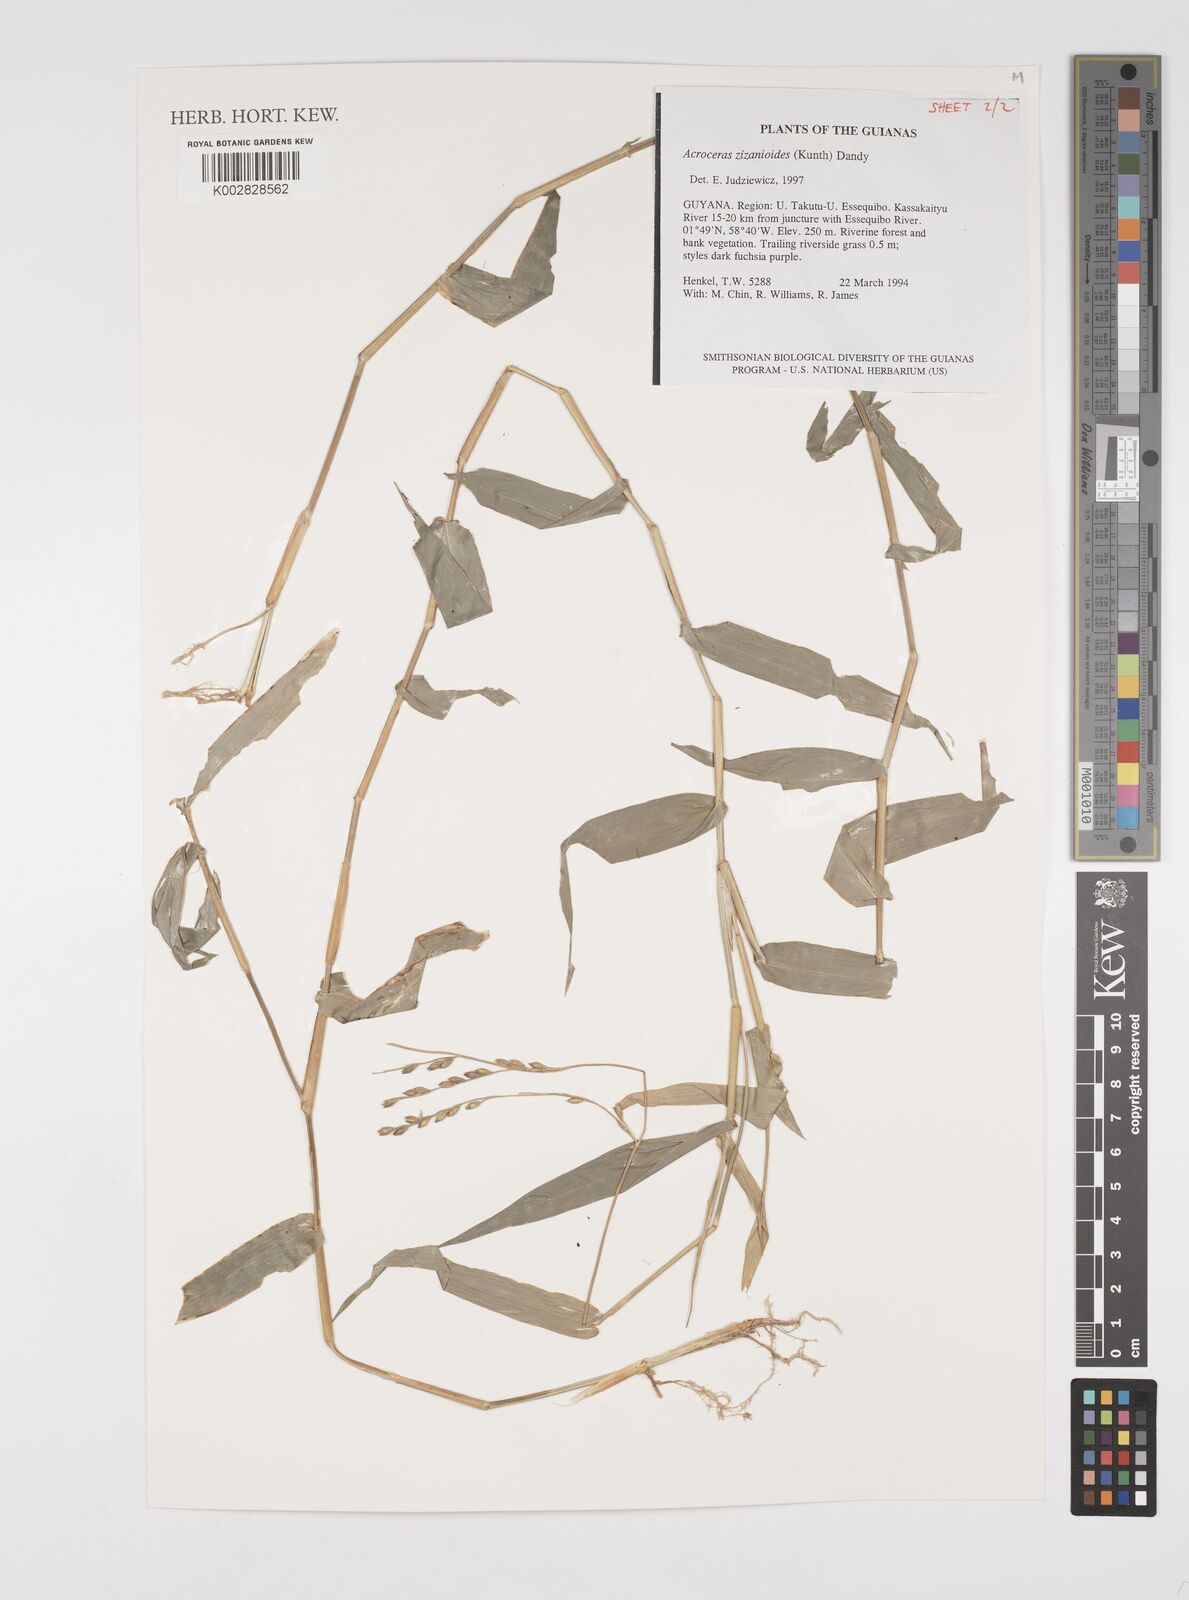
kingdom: Plantae
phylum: Tracheophyta
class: Liliopsida
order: Poales
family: Poaceae
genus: Acroceras
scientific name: Acroceras zizanioides
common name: Oat grass
